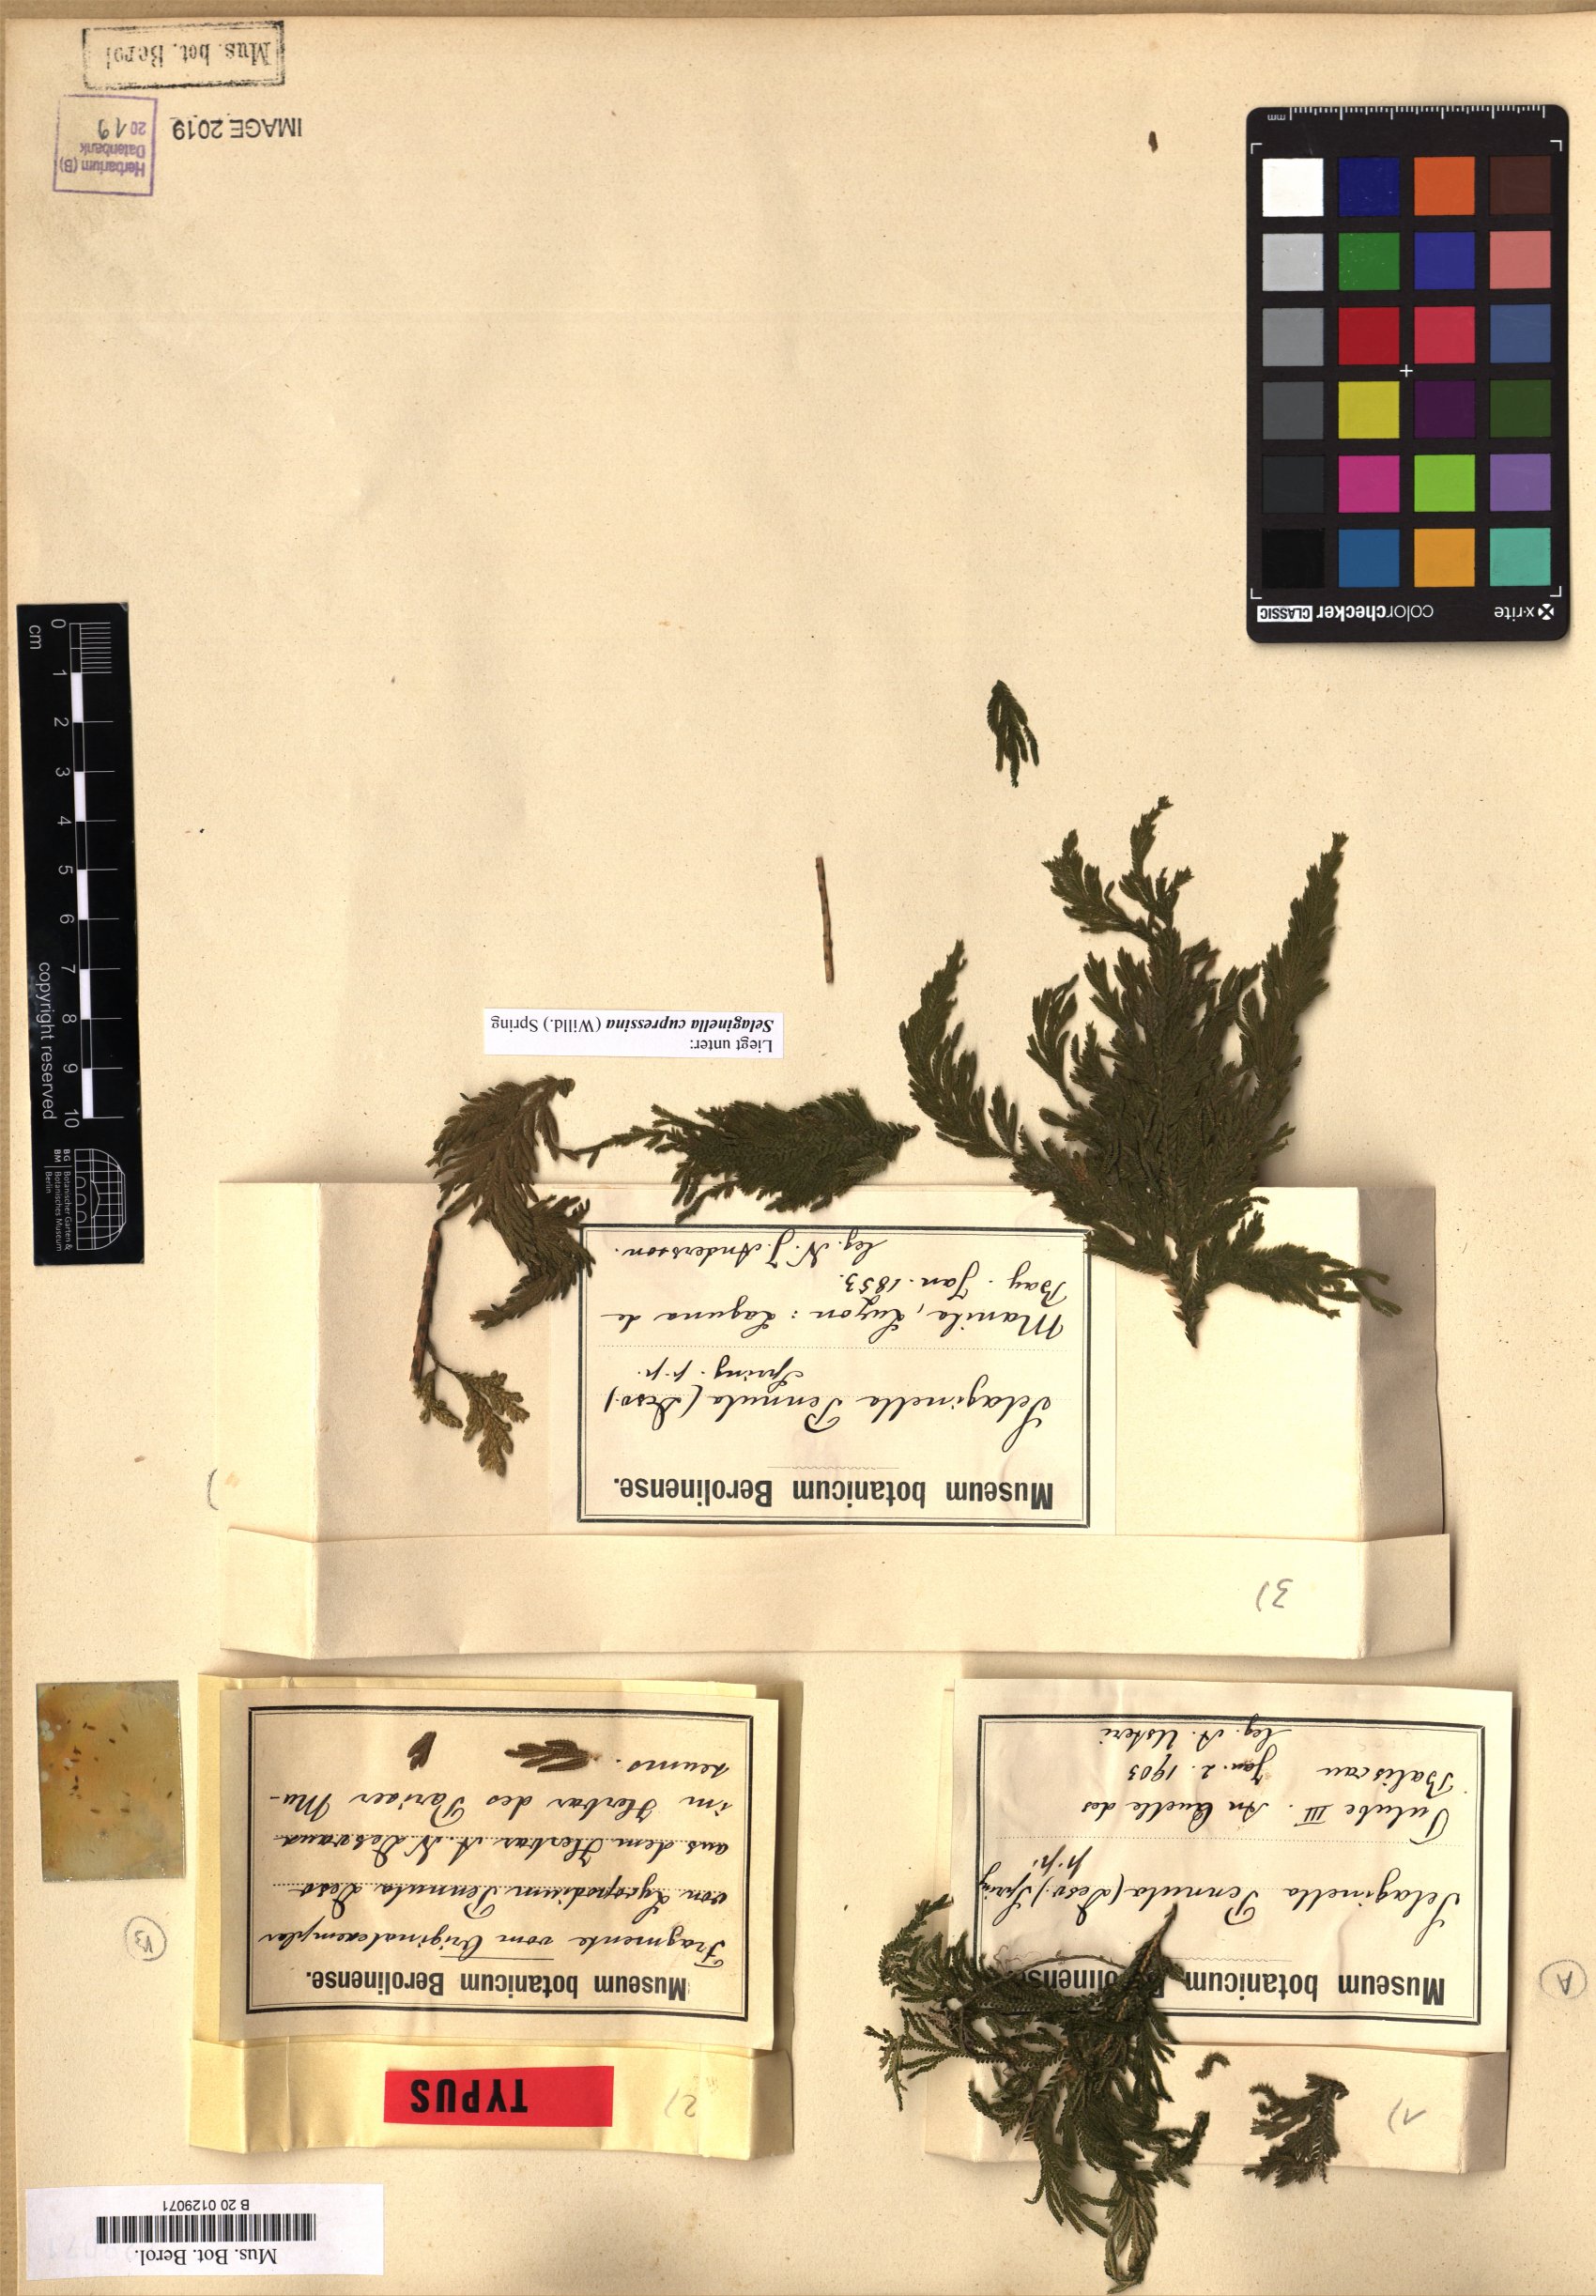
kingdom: Plantae
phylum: Tracheophyta
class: Lycopodiopsida
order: Selaginellales
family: Selaginellaceae
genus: Selaginella
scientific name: Selaginella cupressina
